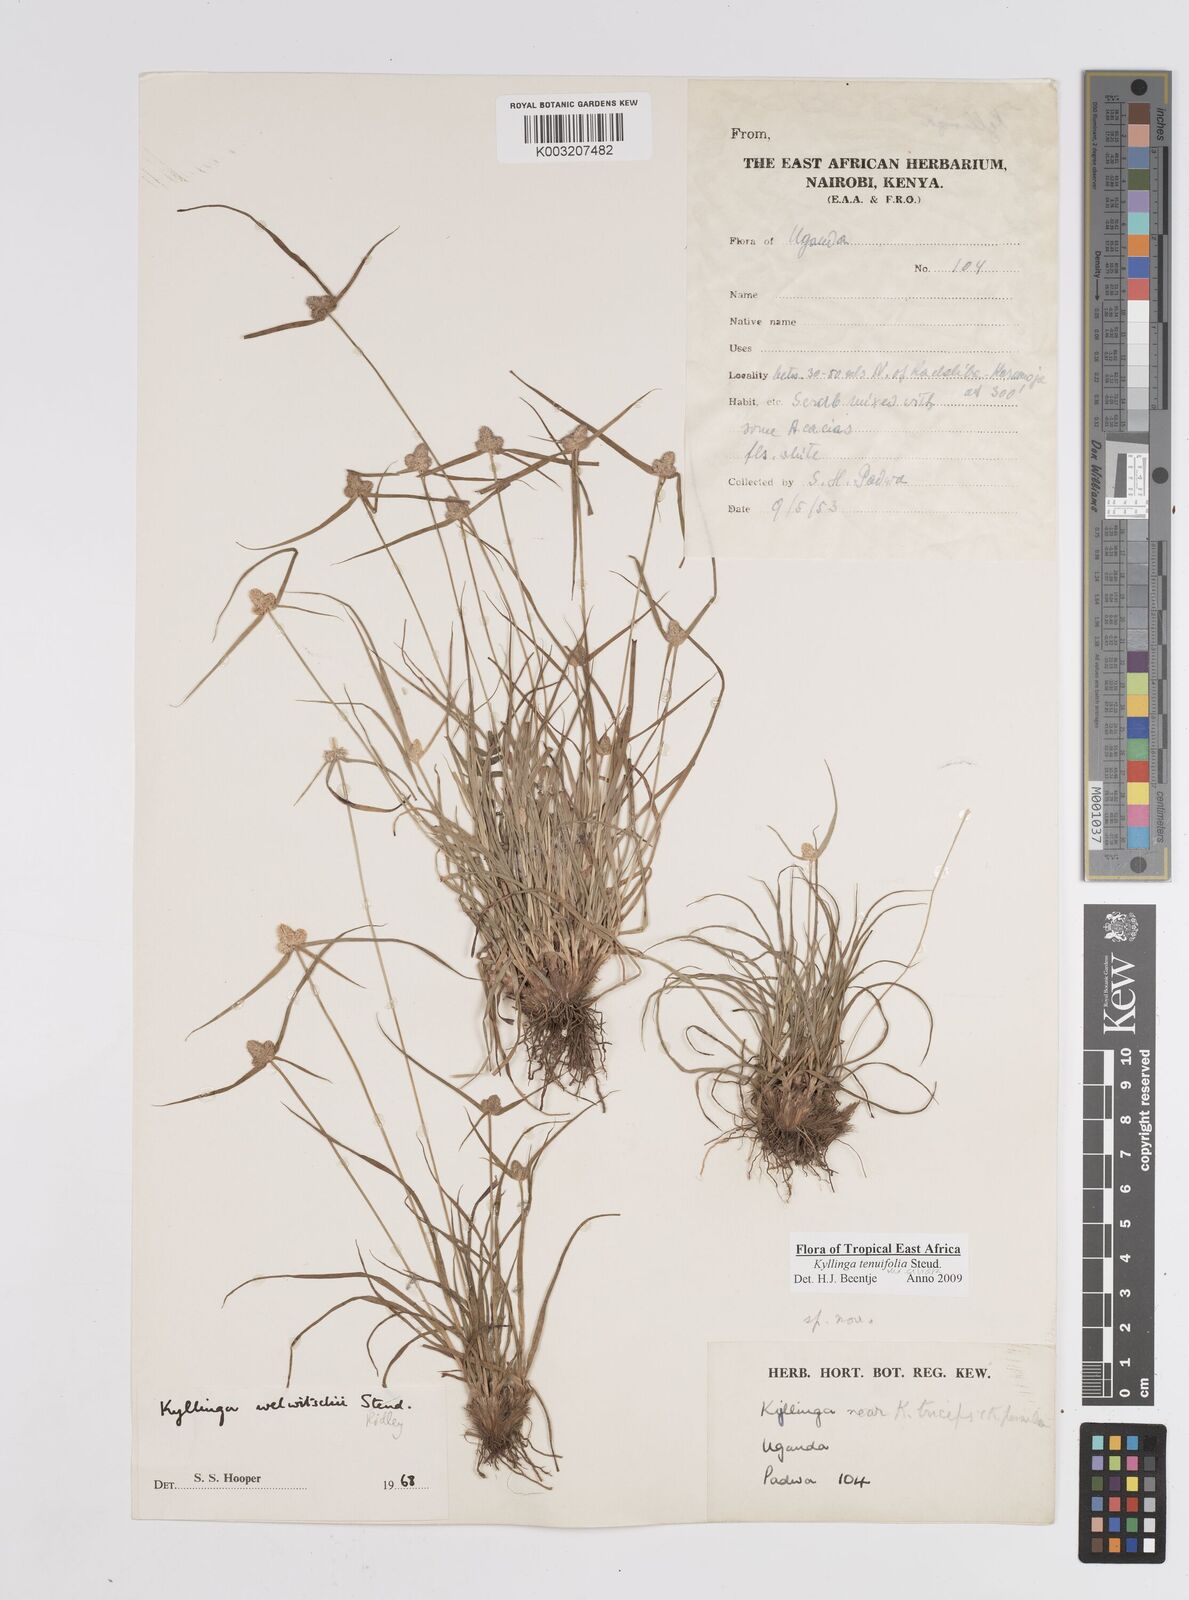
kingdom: Plantae
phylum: Tracheophyta
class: Liliopsida
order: Poales
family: Cyperaceae
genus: Cyperus
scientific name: Cyperus
